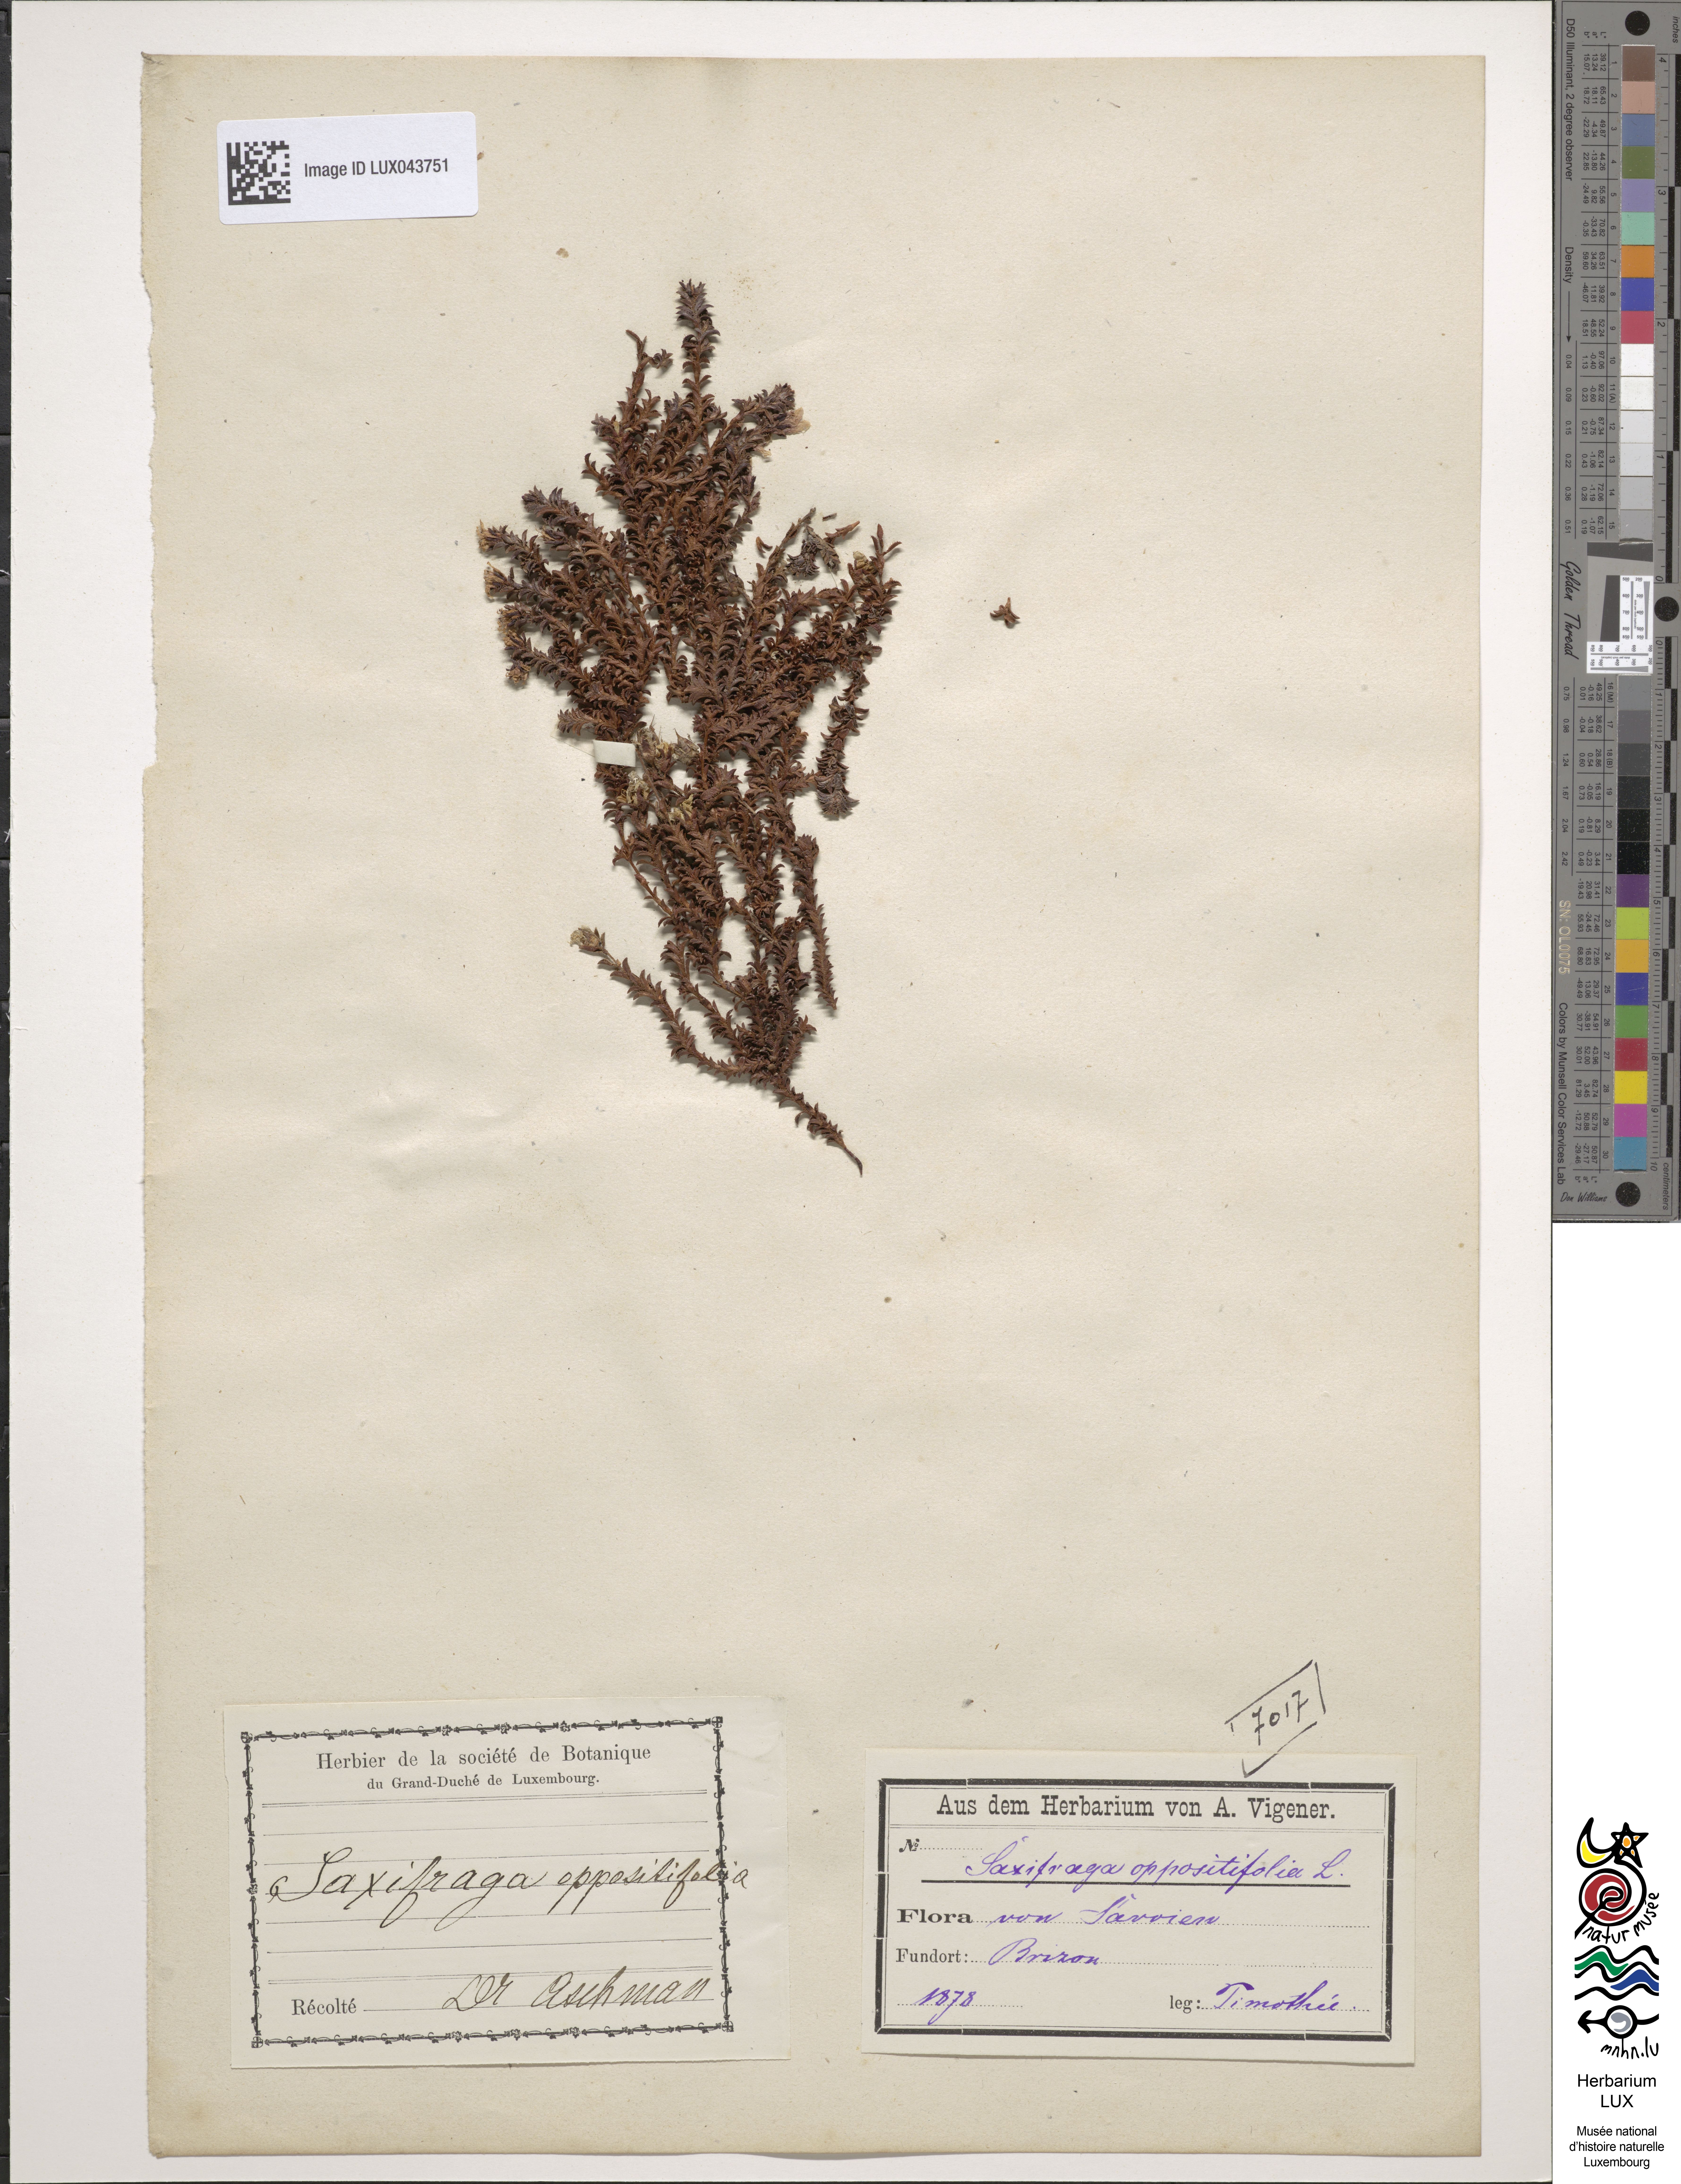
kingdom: Plantae
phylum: Tracheophyta
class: Magnoliopsida
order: Saxifragales
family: Saxifragaceae
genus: Saxifraga
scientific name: Saxifraga oppositifolia
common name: Purple saxifrage
